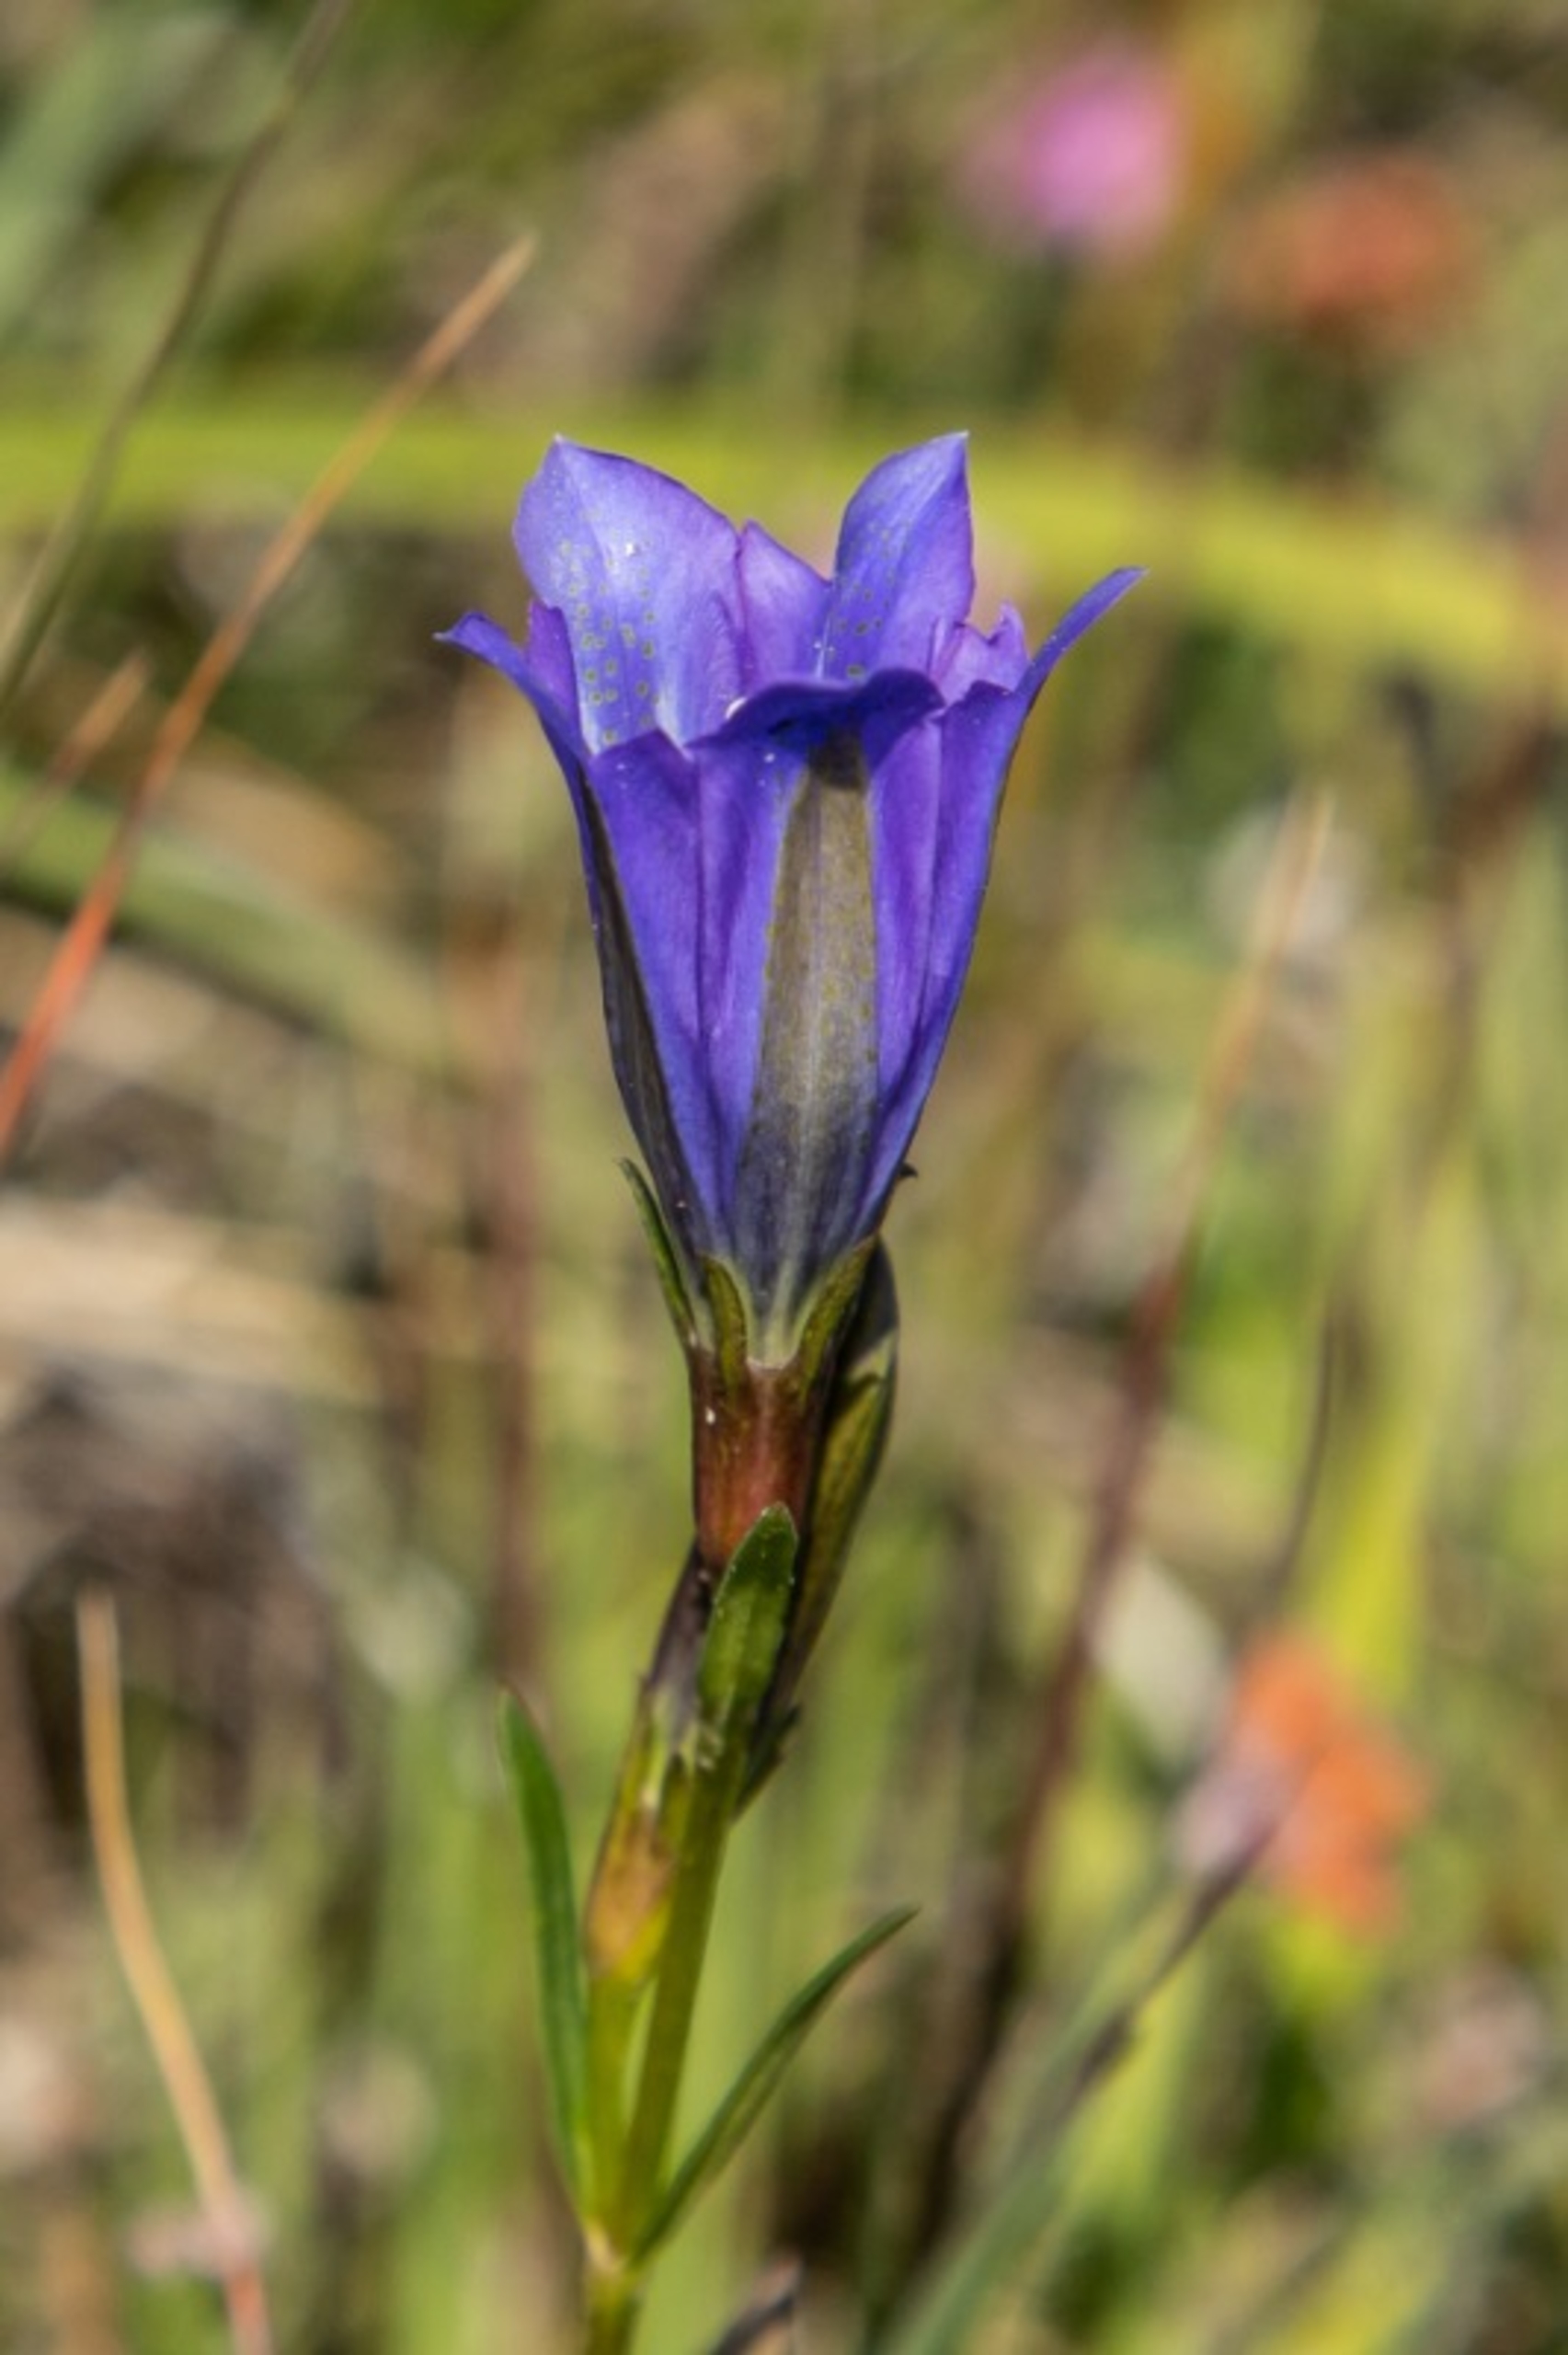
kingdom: Plantae
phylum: Tracheophyta
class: Magnoliopsida
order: Gentianales
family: Gentianaceae
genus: Gentiana
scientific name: Gentiana pneumonanthe
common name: Klokke-ensian
